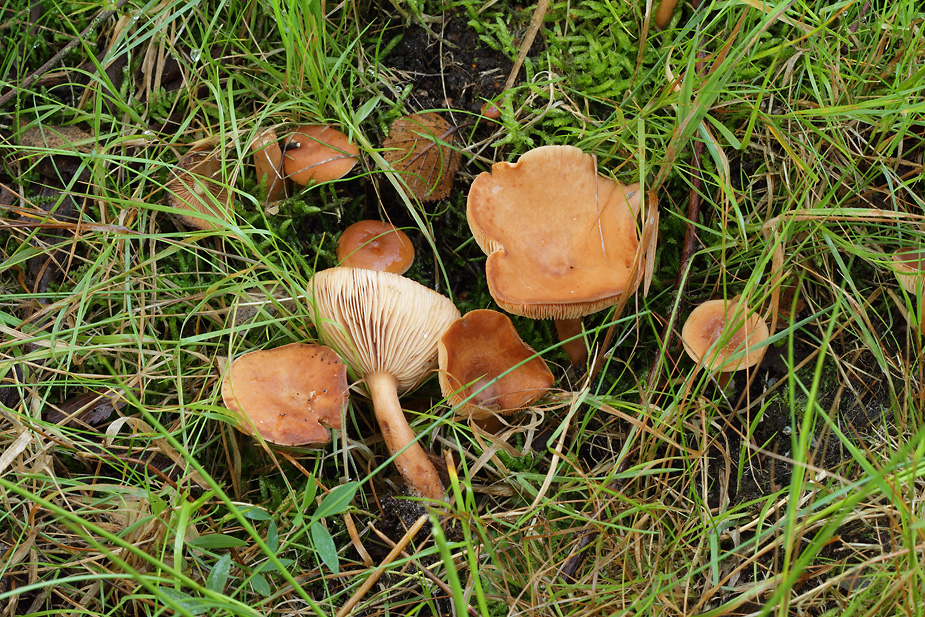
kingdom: Fungi
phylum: Basidiomycota
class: Agaricomycetes
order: Russulales
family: Russulaceae
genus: Lactarius
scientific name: Lactarius lacunarum
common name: sump-mælkehat
